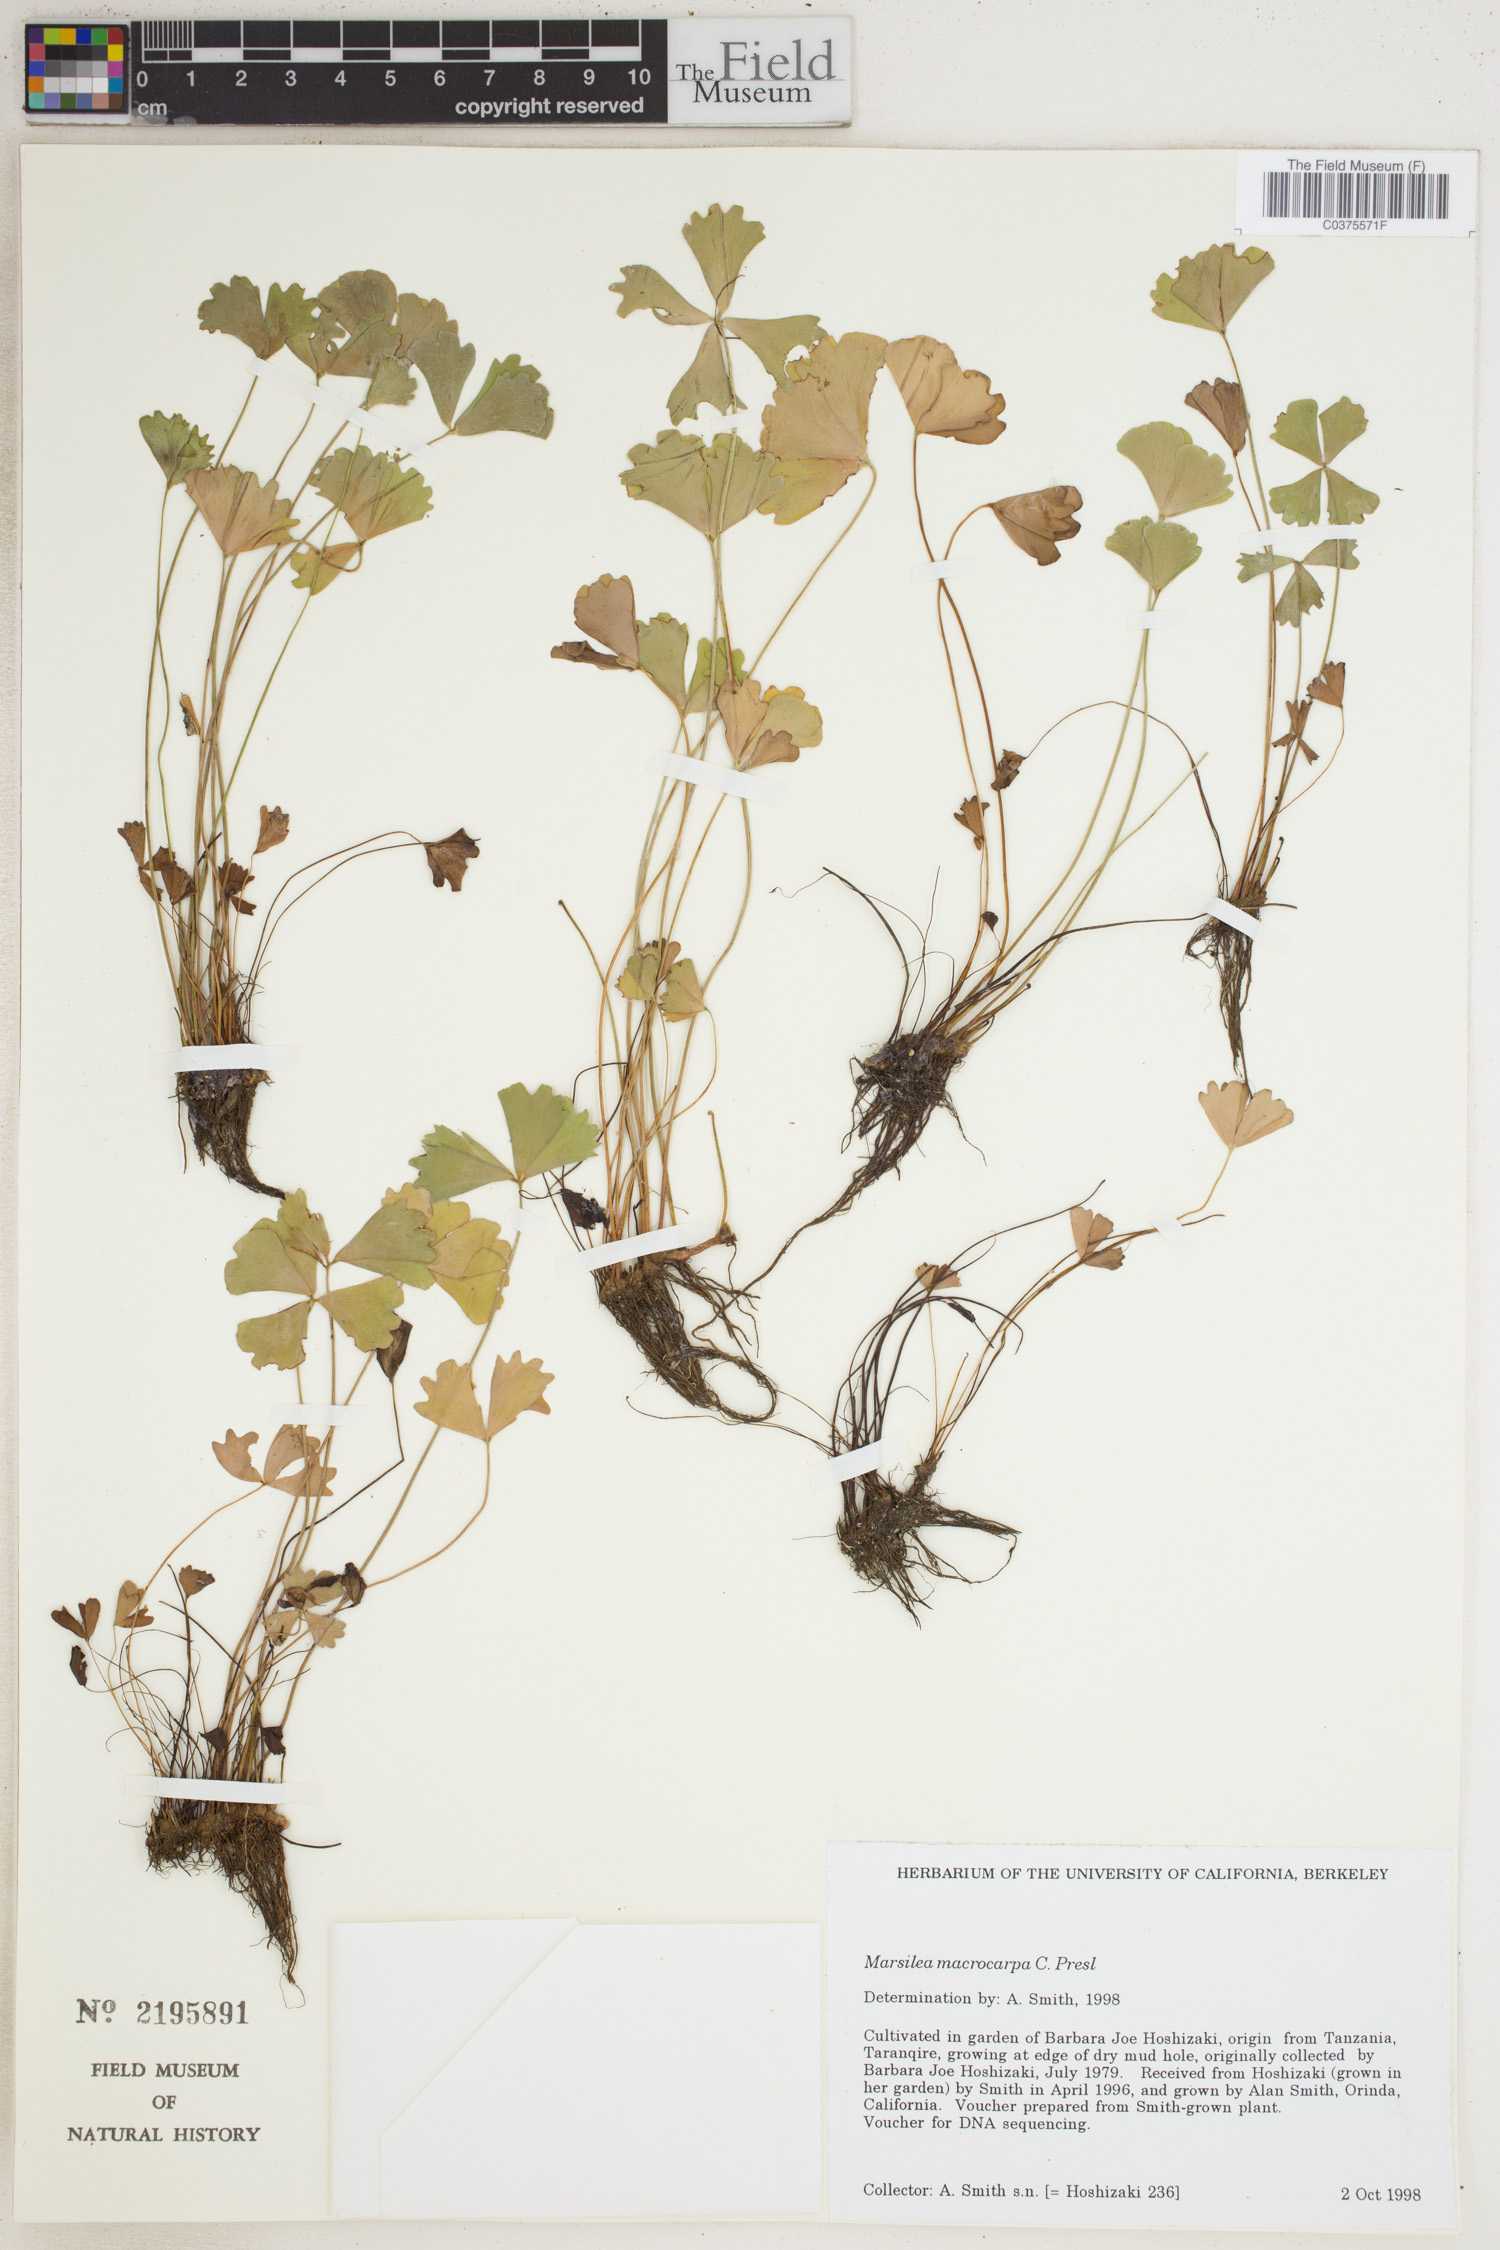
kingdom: Plantae
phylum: Tracheophyta
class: Polypodiopsida
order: Salviniales
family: Marsileaceae
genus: Marsilea
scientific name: Marsilea macrocarpa
